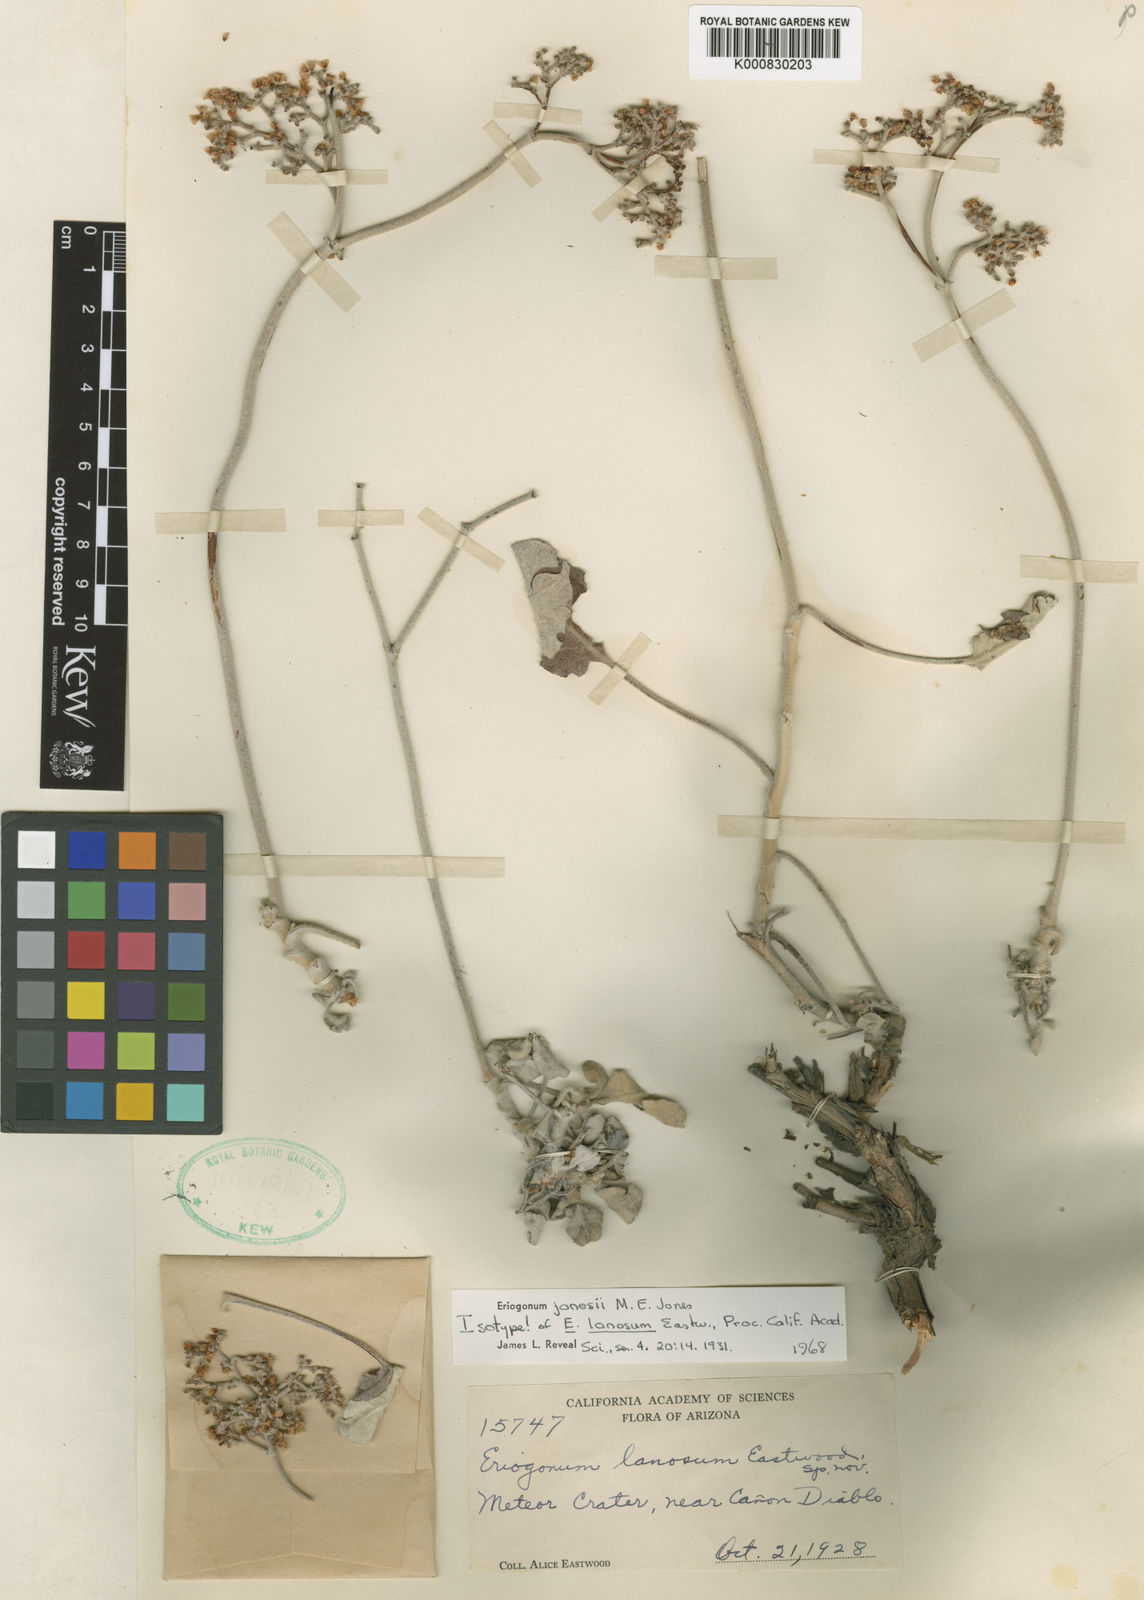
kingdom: Plantae
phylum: Tracheophyta
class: Magnoliopsida
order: Caryophyllales
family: Polygonaceae
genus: Eriogonum
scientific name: Eriogonum jonesii
